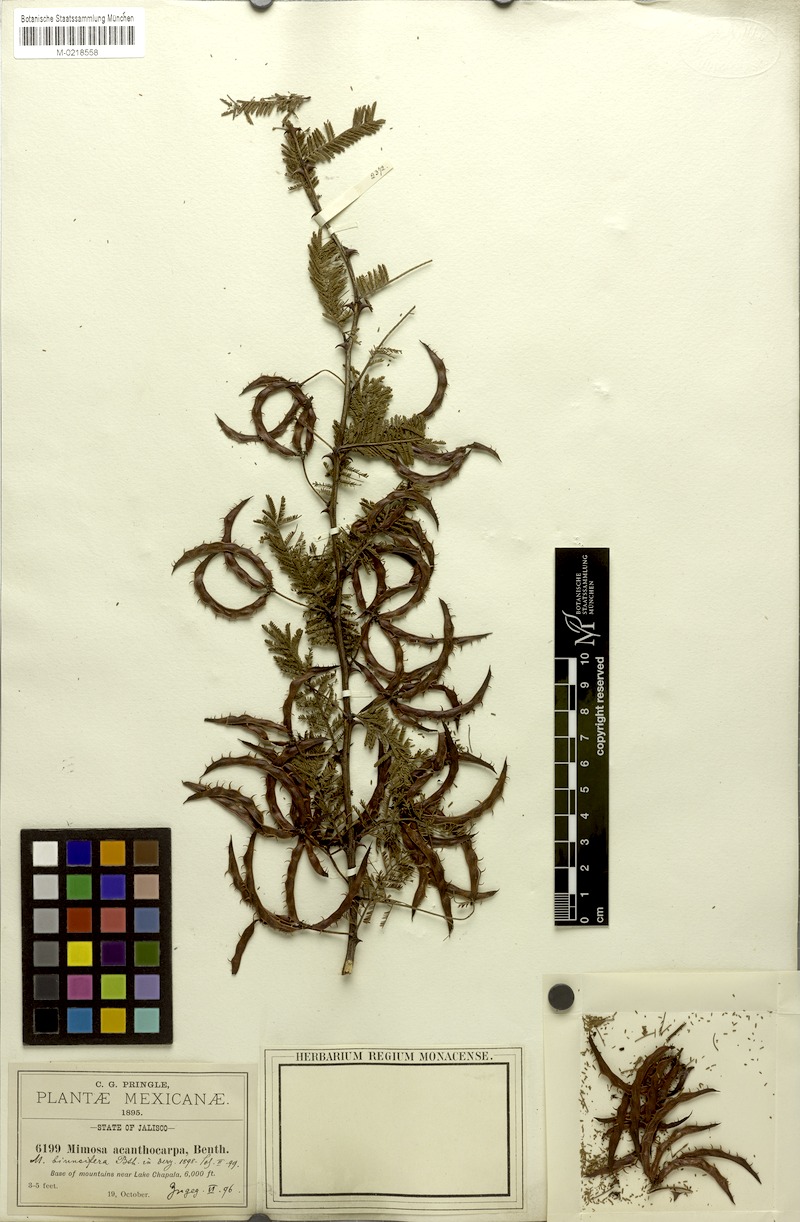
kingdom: Plantae
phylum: Tracheophyta
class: Magnoliopsida
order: Fabales
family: Fabaceae
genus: Mimosa
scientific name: Mimosa aculeaticarpa
